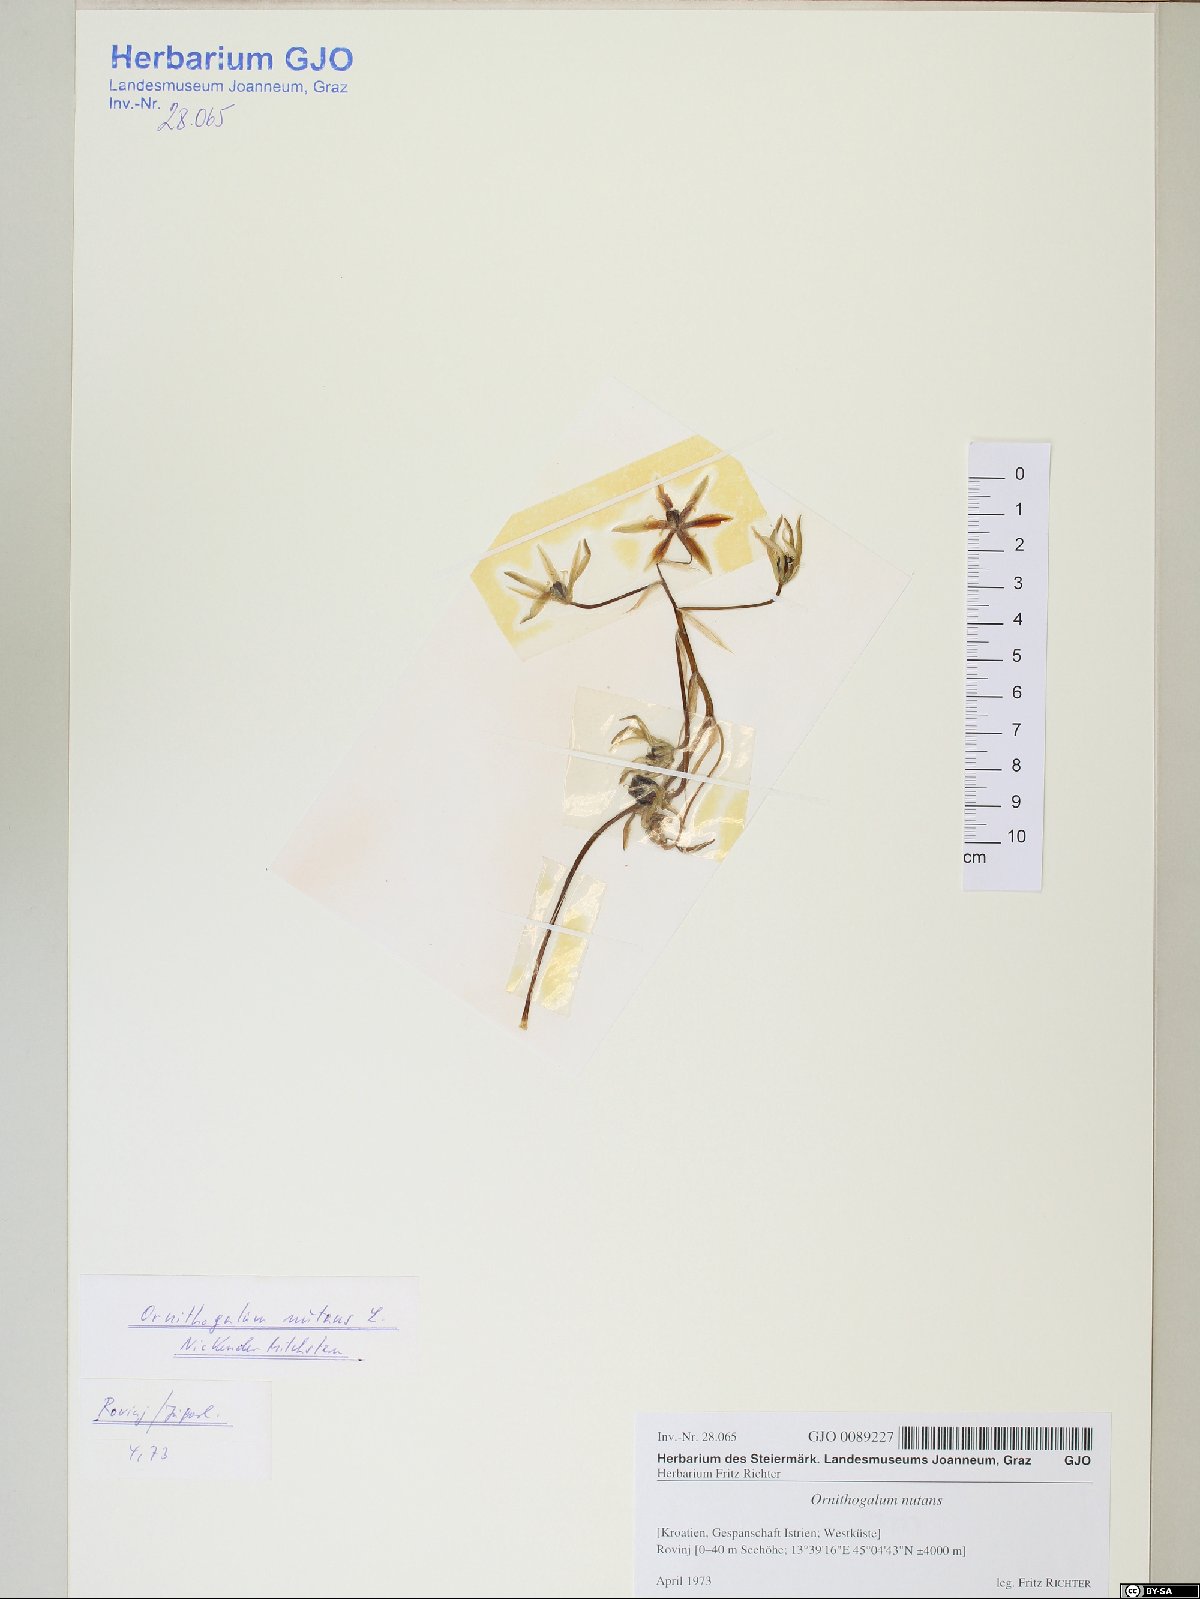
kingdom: Plantae
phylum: Tracheophyta
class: Liliopsida
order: Asparagales
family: Asparagaceae
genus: Ornithogalum
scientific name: Ornithogalum nutans
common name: Drooping star-of-bethlehem
